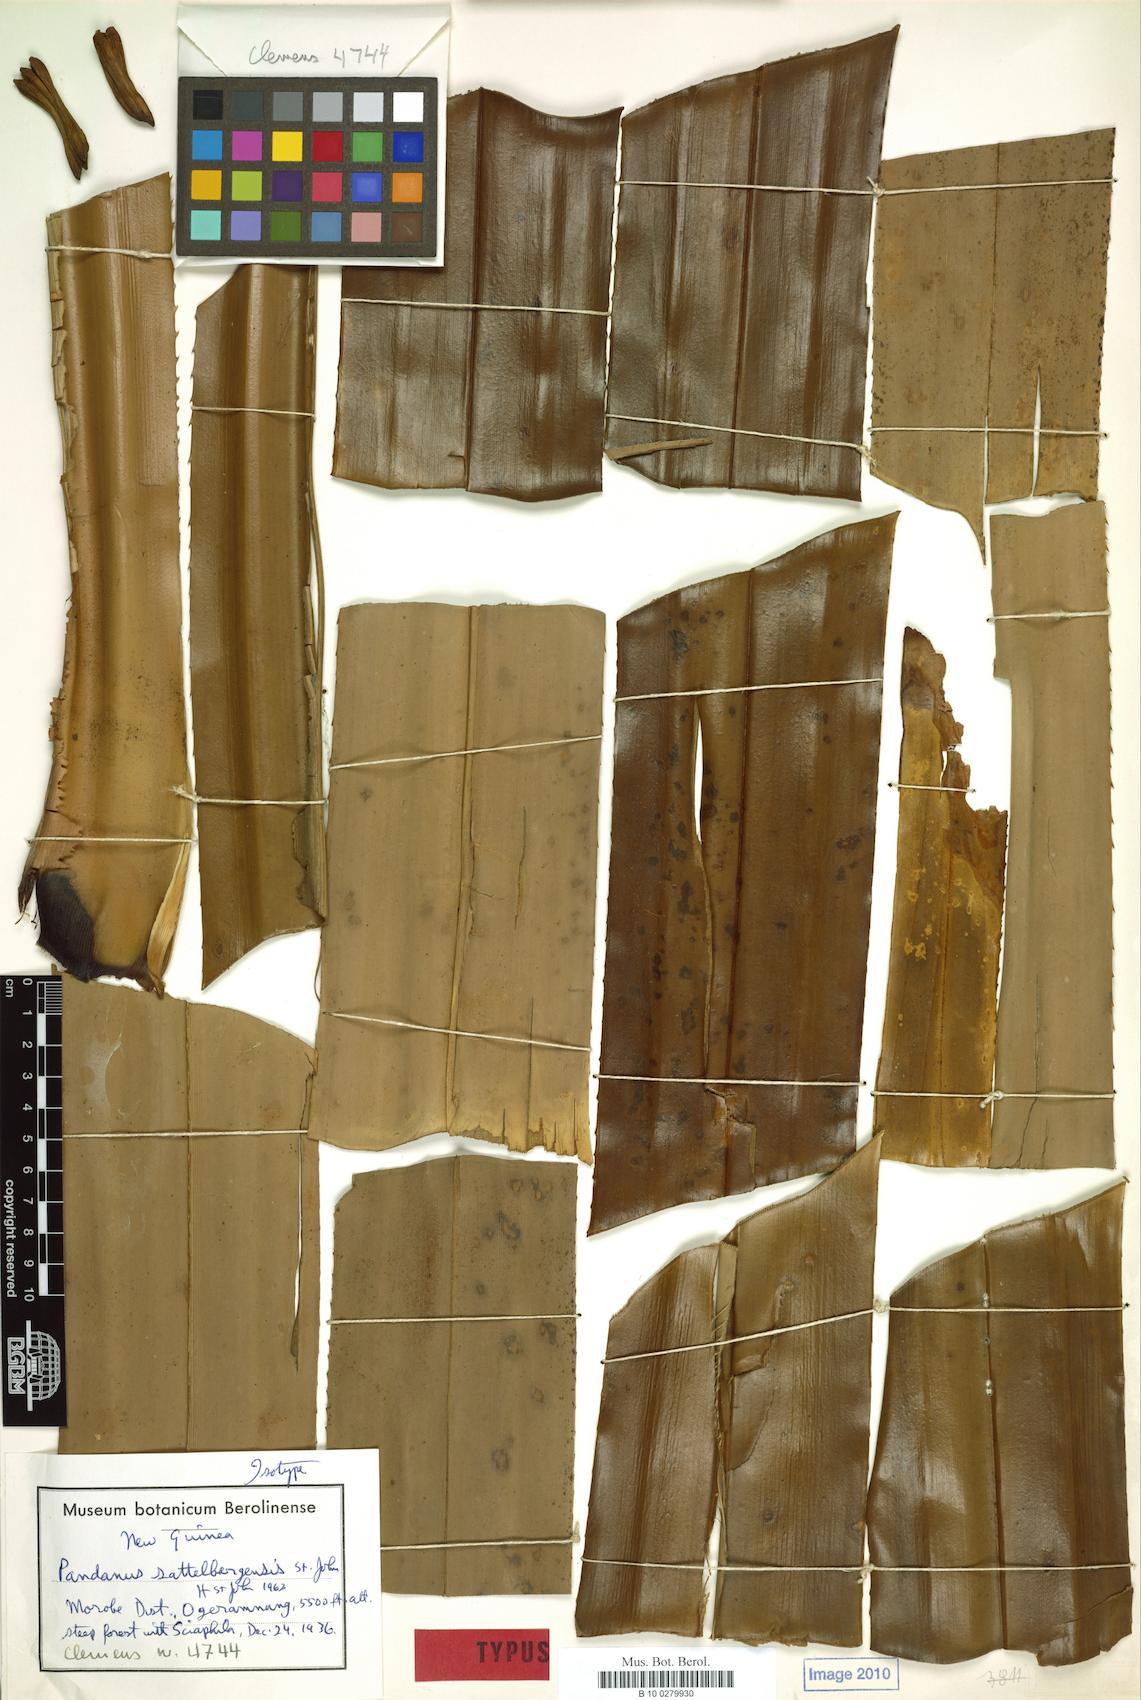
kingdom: Plantae
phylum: Tracheophyta
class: Liliopsida
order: Pandanales
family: Pandanaceae
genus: Pandanus
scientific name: Pandanus aggregatus
